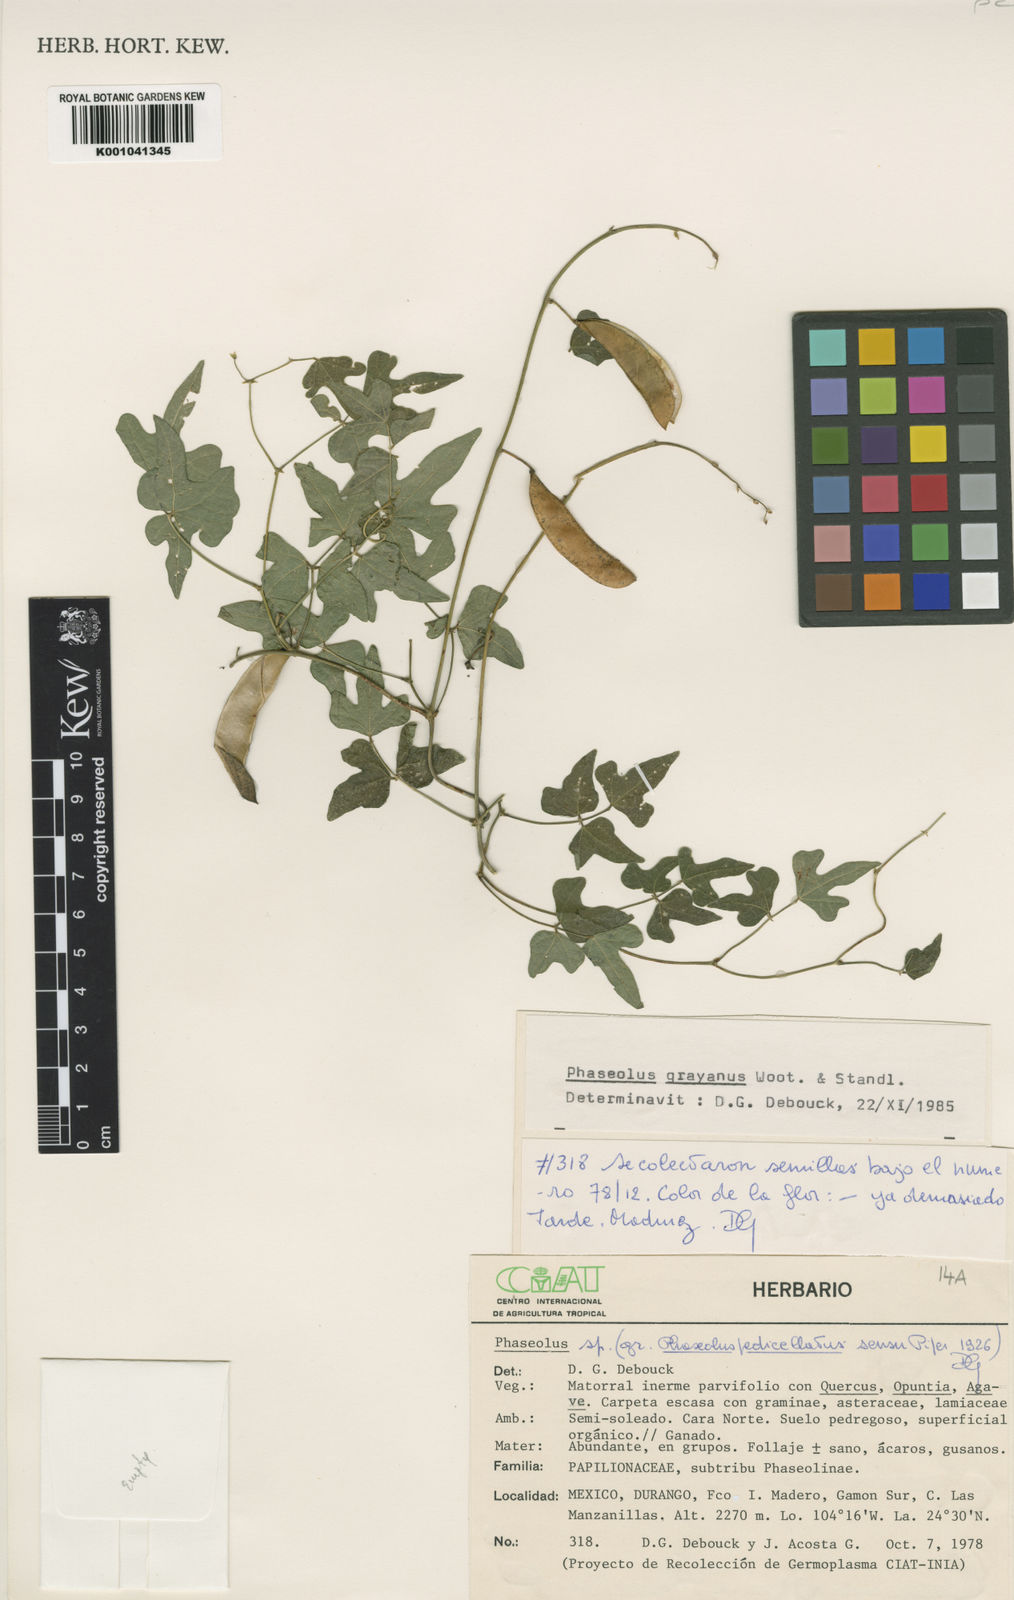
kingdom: Plantae
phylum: Tracheophyta
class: Magnoliopsida
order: Fabales
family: Fabaceae
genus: Phaseolus
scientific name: Phaseolus pedicellatus
